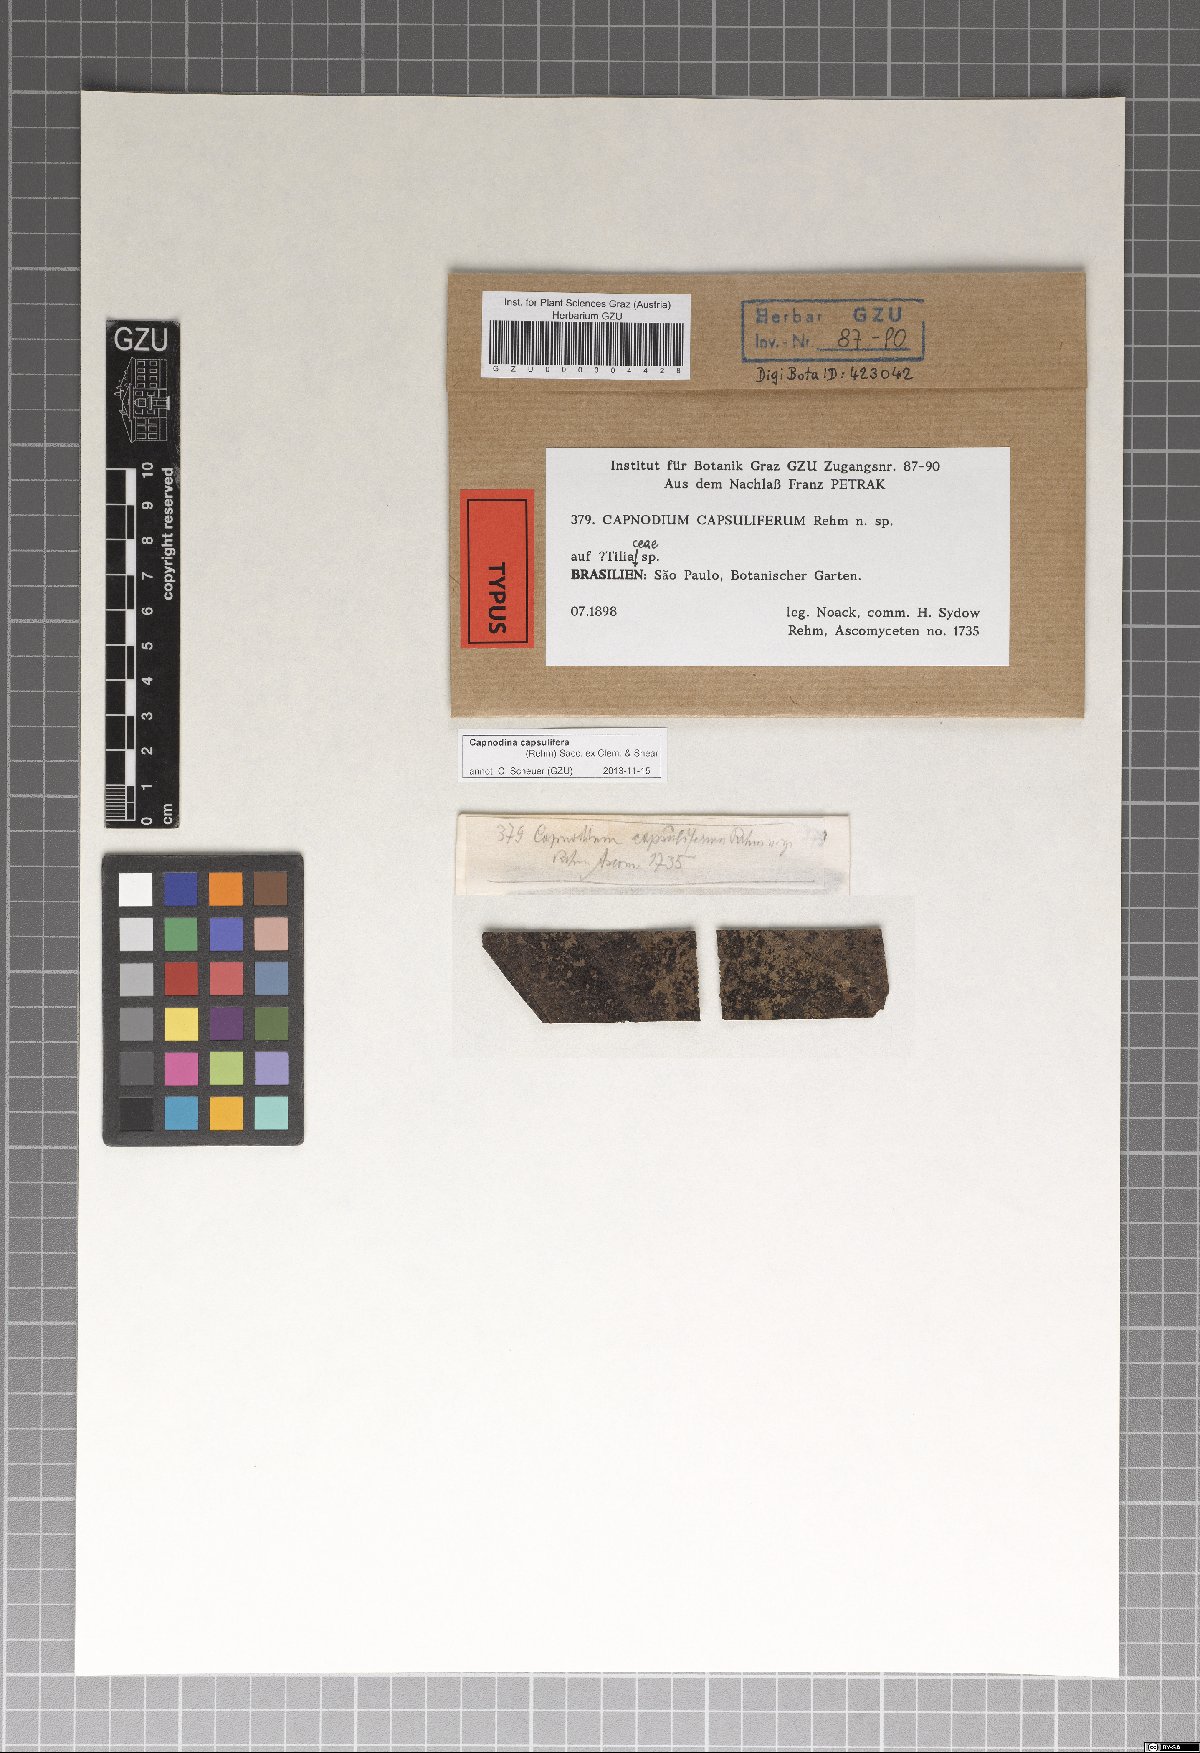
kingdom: Fungi
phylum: Ascomycota
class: Dothideomycetes
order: Capnodiales
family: Antennulariellaceae
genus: Capnodina
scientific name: Capnodina capsulifera
